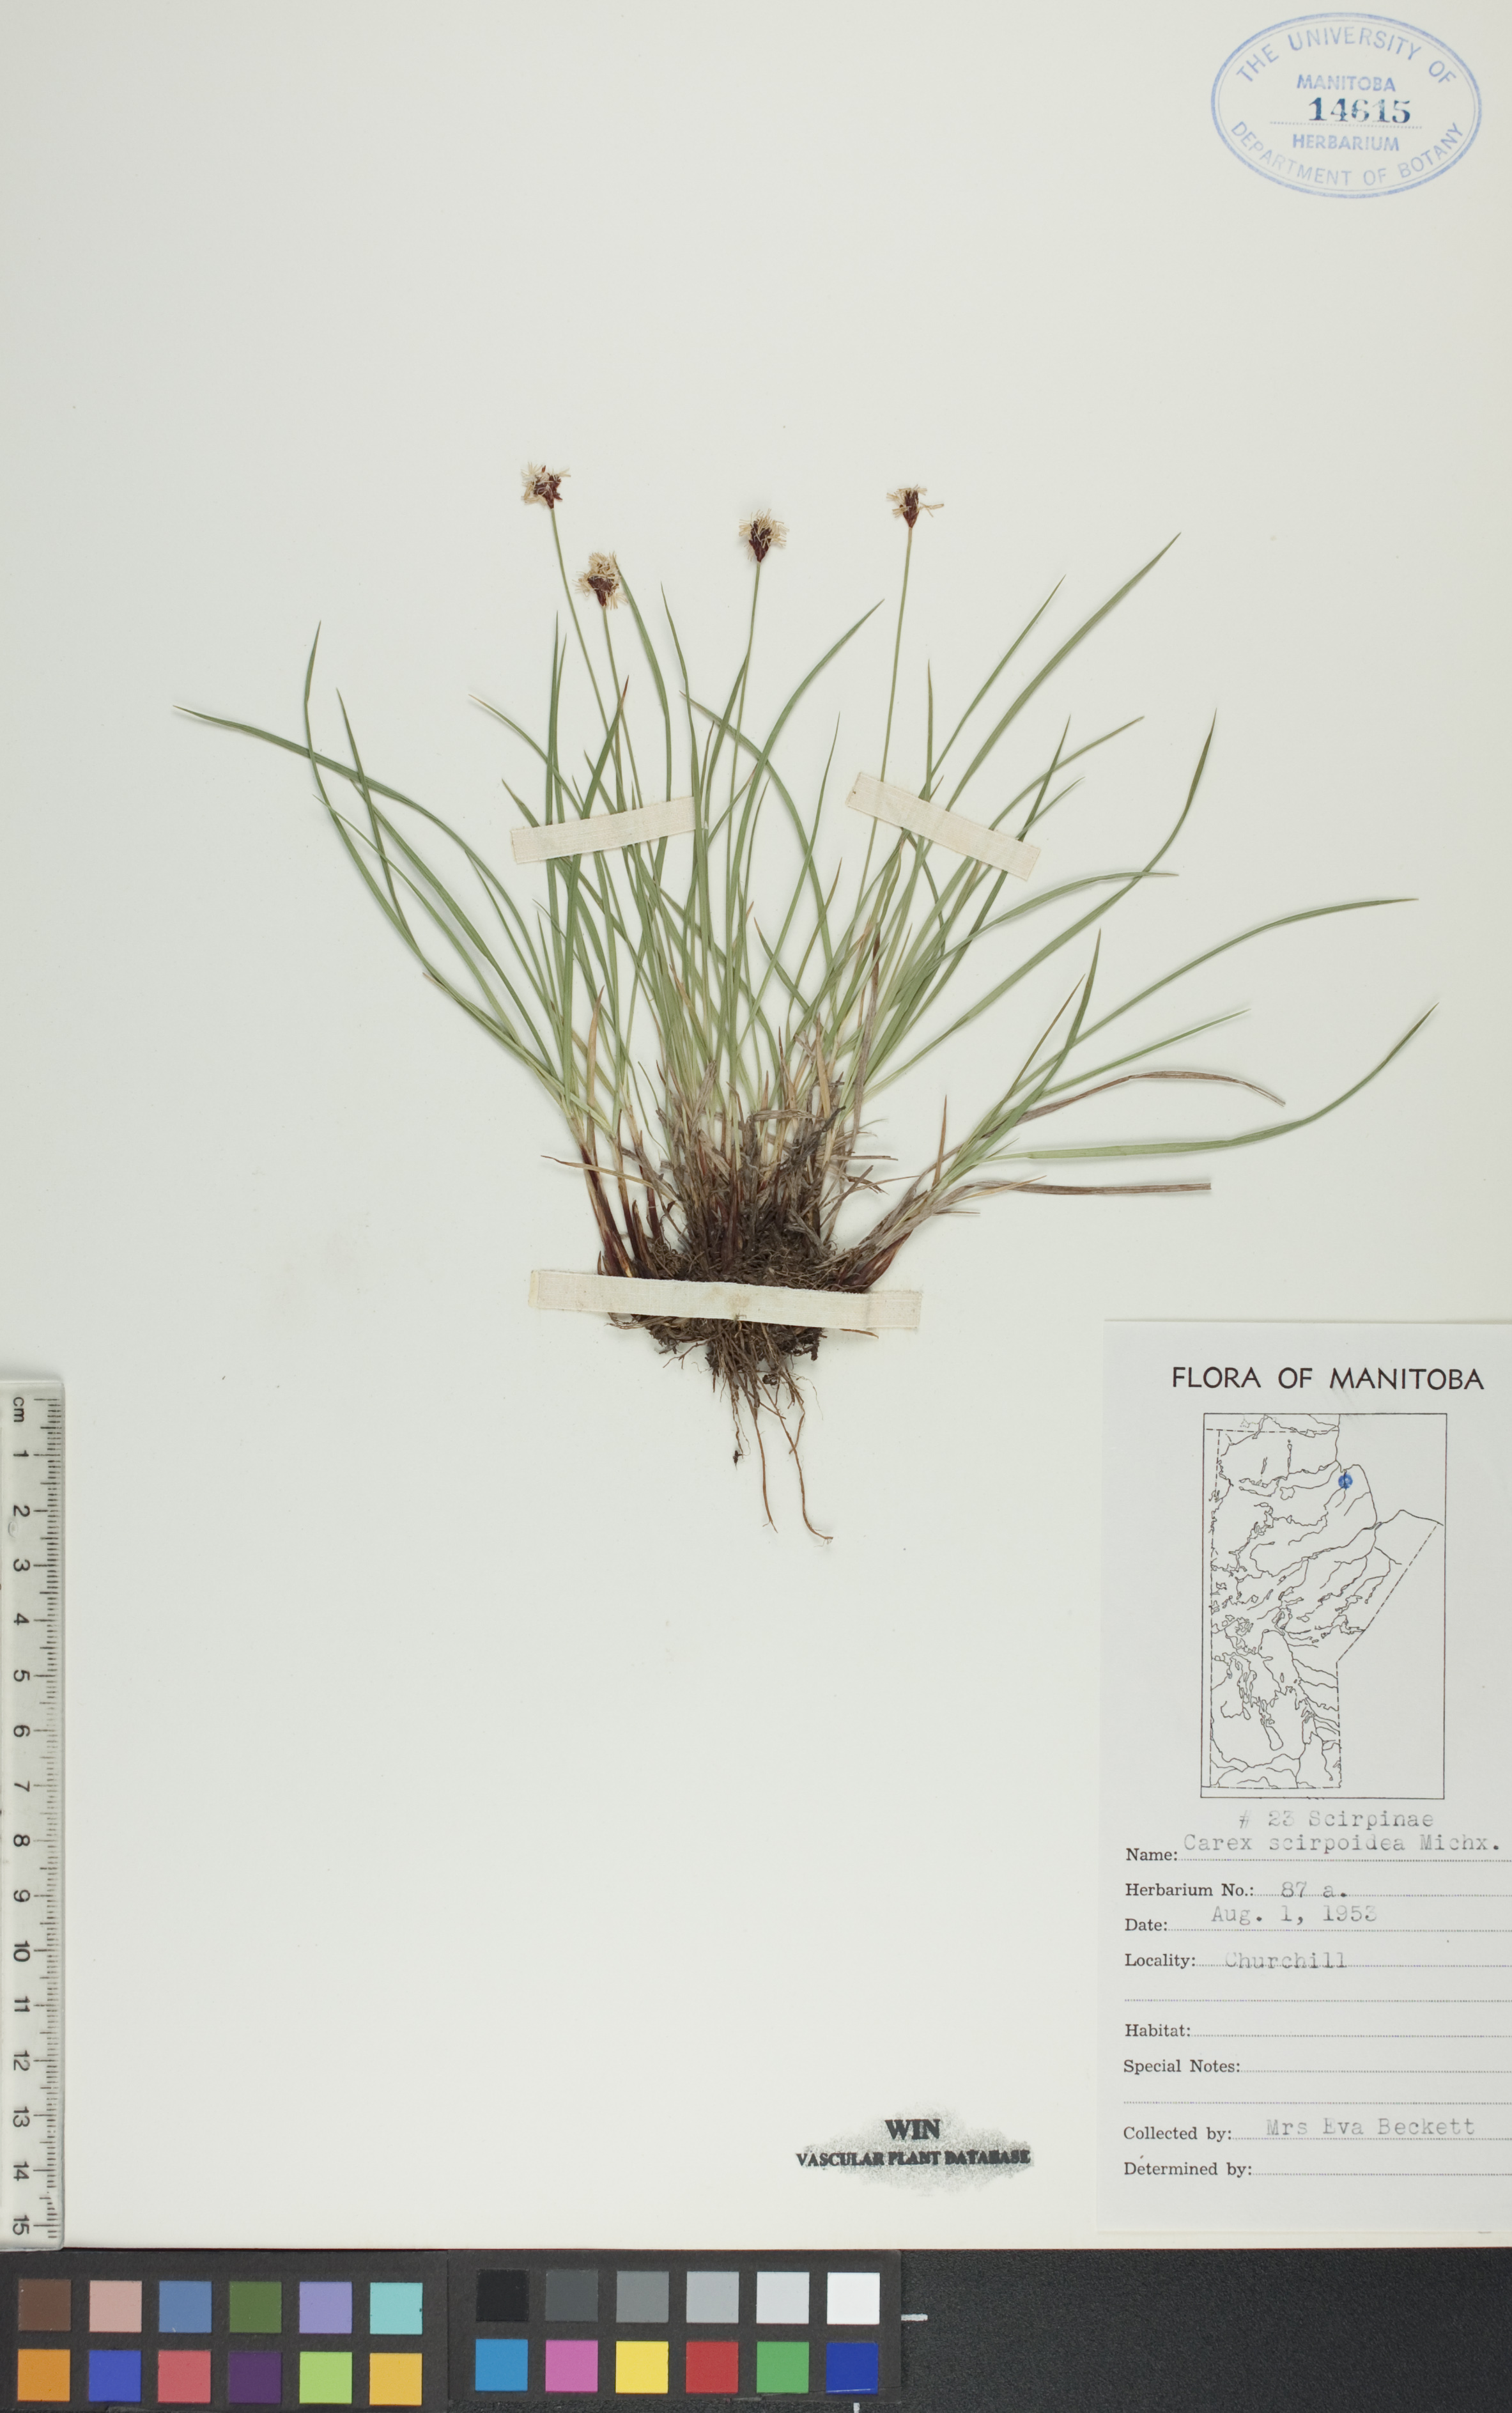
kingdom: Plantae
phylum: Tracheophyta
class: Liliopsida
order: Poales
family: Cyperaceae
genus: Carex
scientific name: Carex scirpoidea
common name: Canada single-spike sedge
